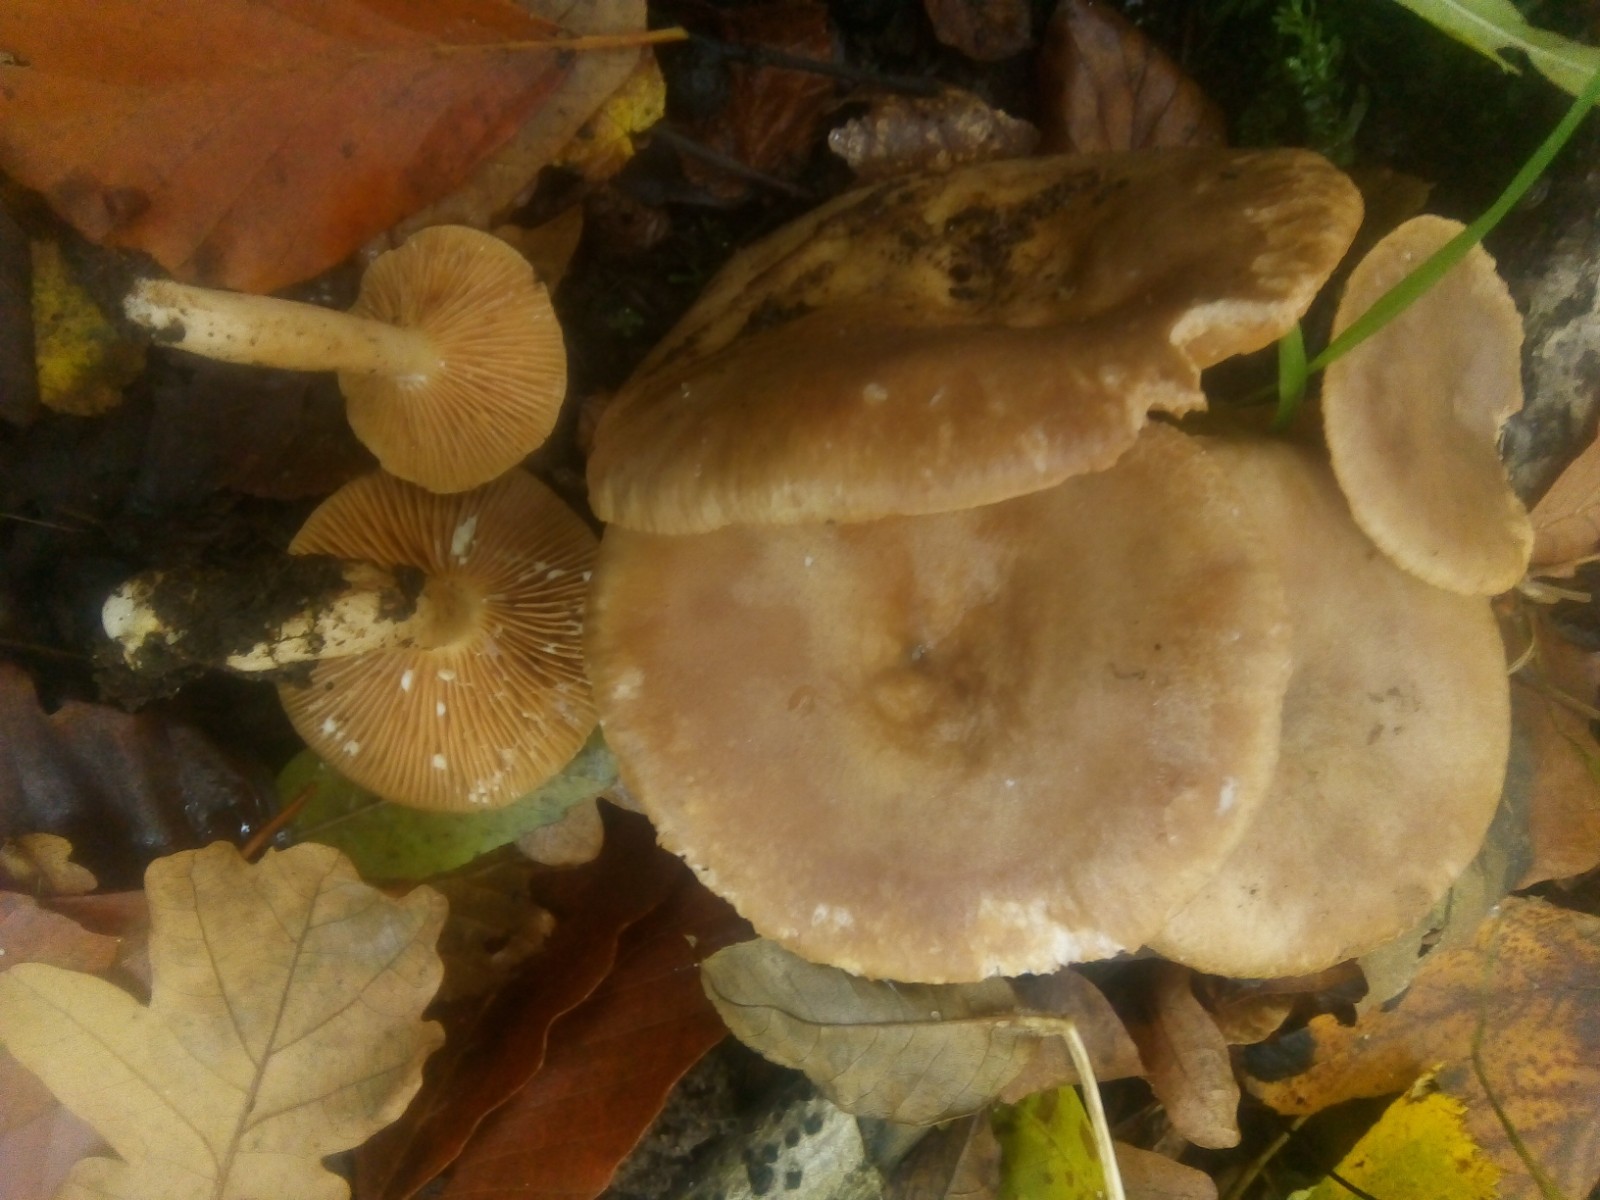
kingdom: Fungi
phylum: Basidiomycota
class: Agaricomycetes
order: Russulales
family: Russulaceae
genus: Lactarius
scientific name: Lactarius pyrogalus
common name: hassel-mælkehat
